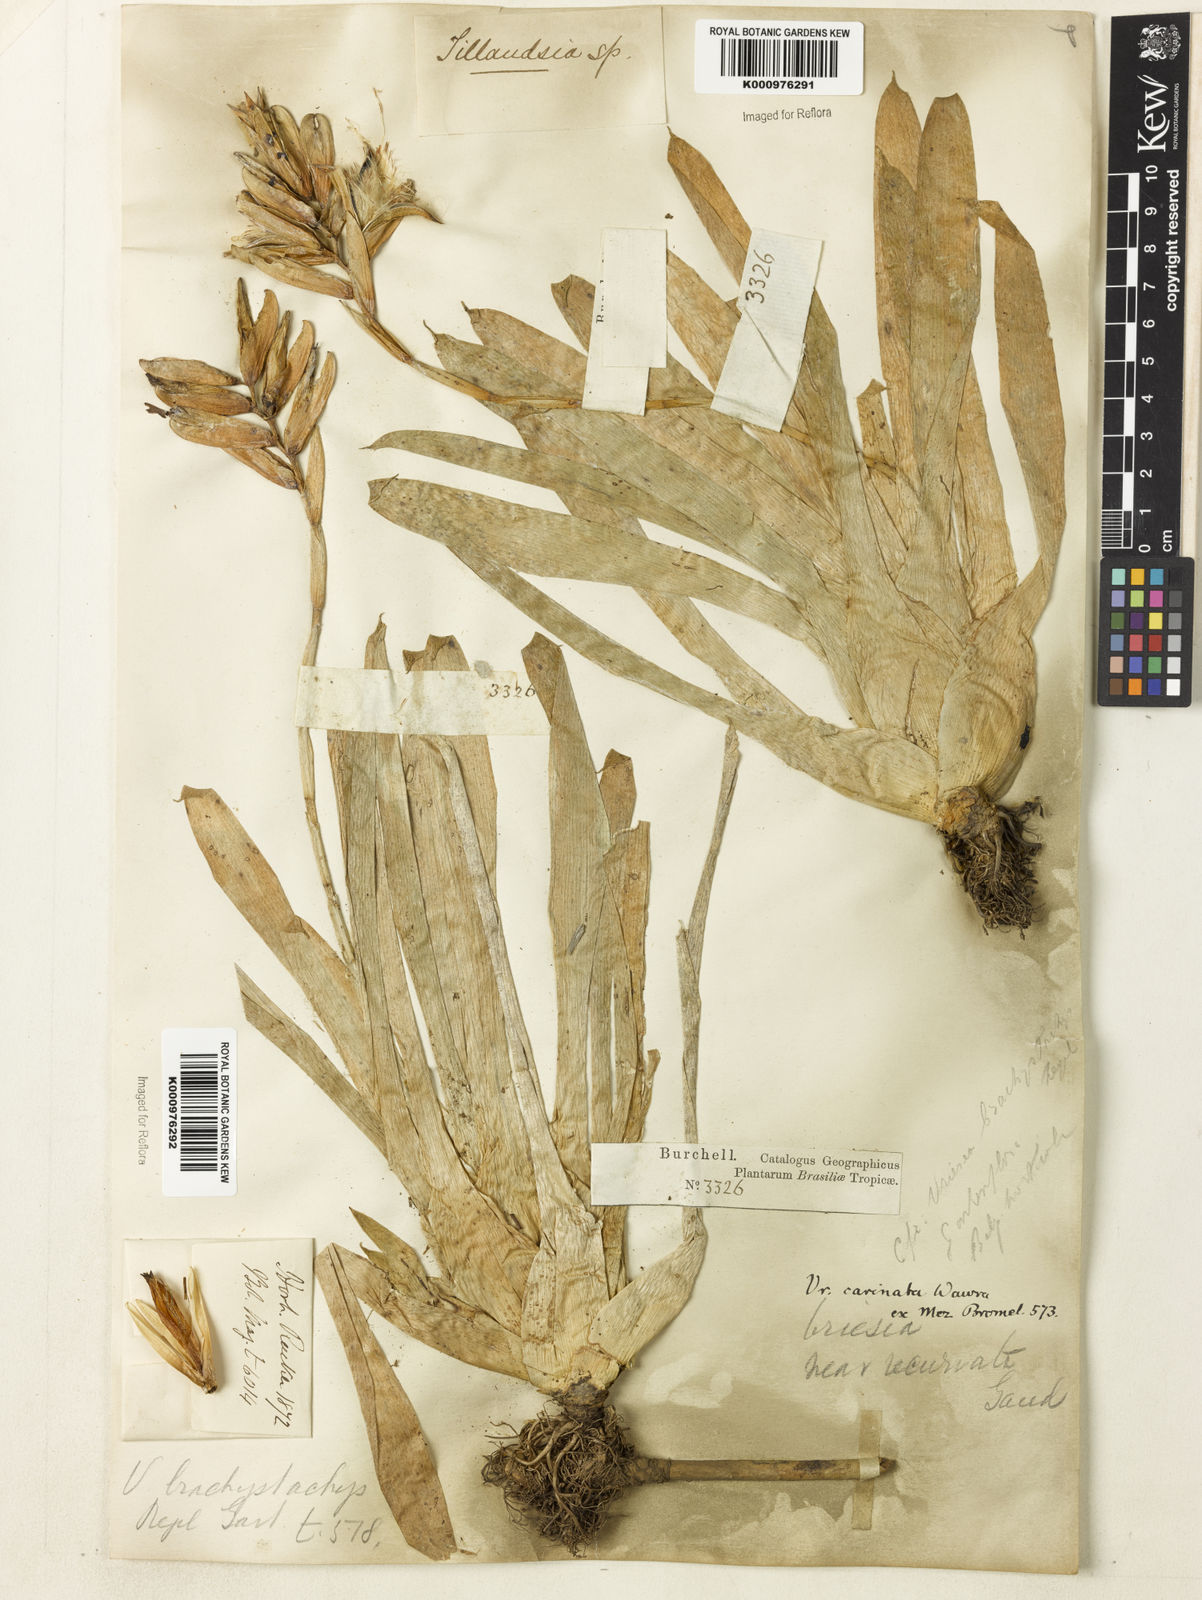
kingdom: Plantae
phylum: Tracheophyta
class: Liliopsida
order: Poales
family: Bromeliaceae
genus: Vriesea
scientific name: Vriesea carinata
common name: Lobster-claws
